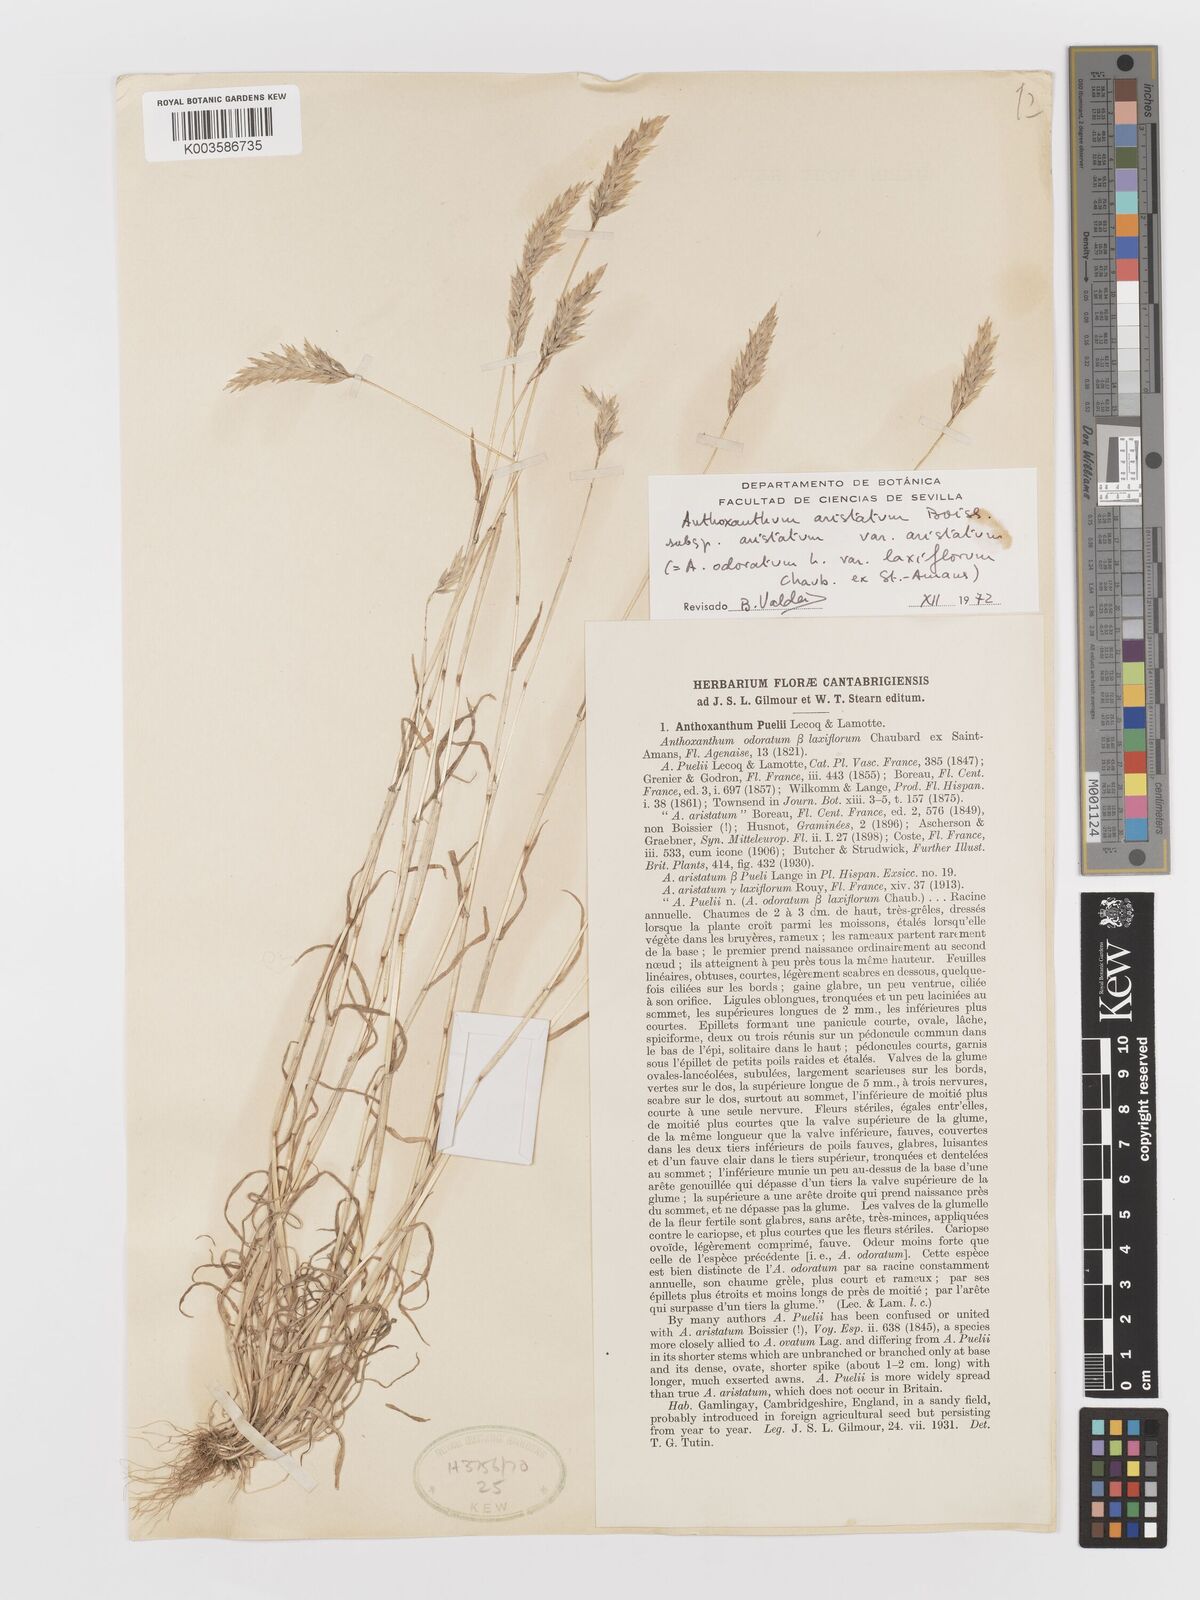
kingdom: Plantae
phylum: Tracheophyta
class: Liliopsida
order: Poales
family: Poaceae
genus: Anthoxanthum
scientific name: Anthoxanthum aristatum
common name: Annual vernal-grass
